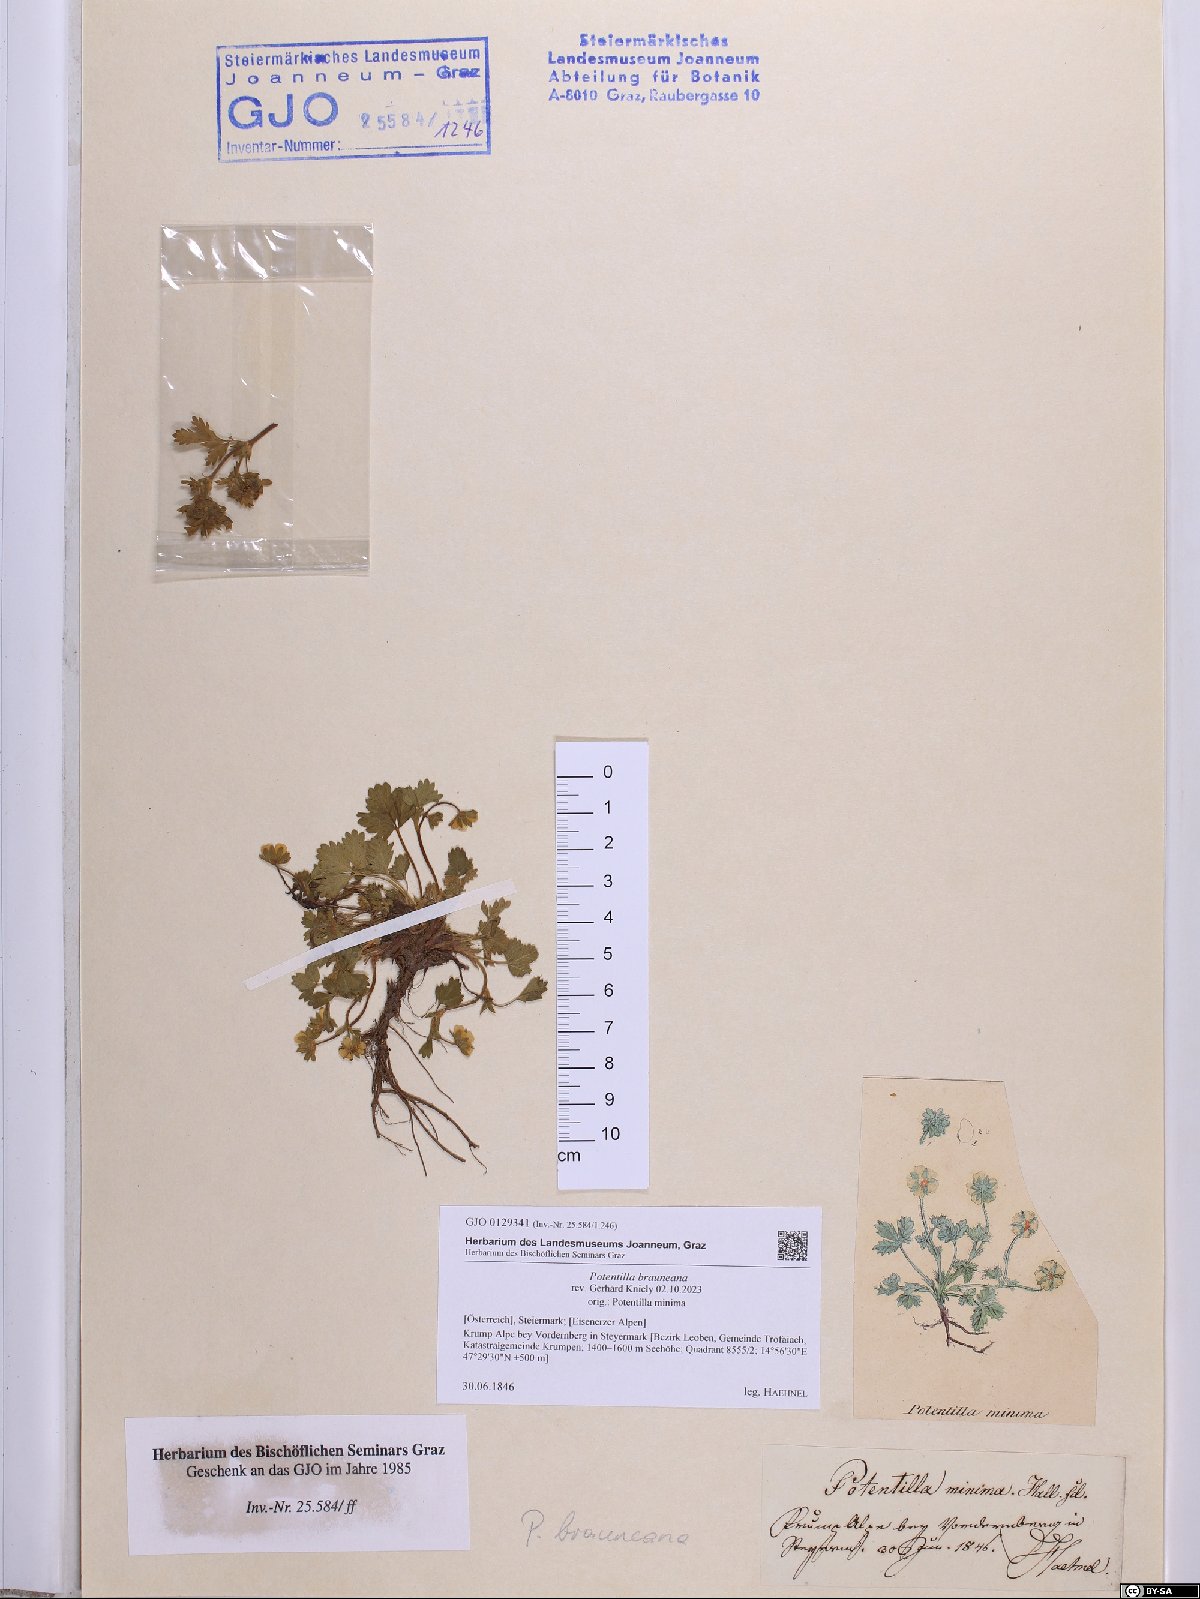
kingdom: Plantae
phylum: Tracheophyta
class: Magnoliopsida
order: Rosales
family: Rosaceae
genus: Potentilla
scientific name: Potentilla brauneana
